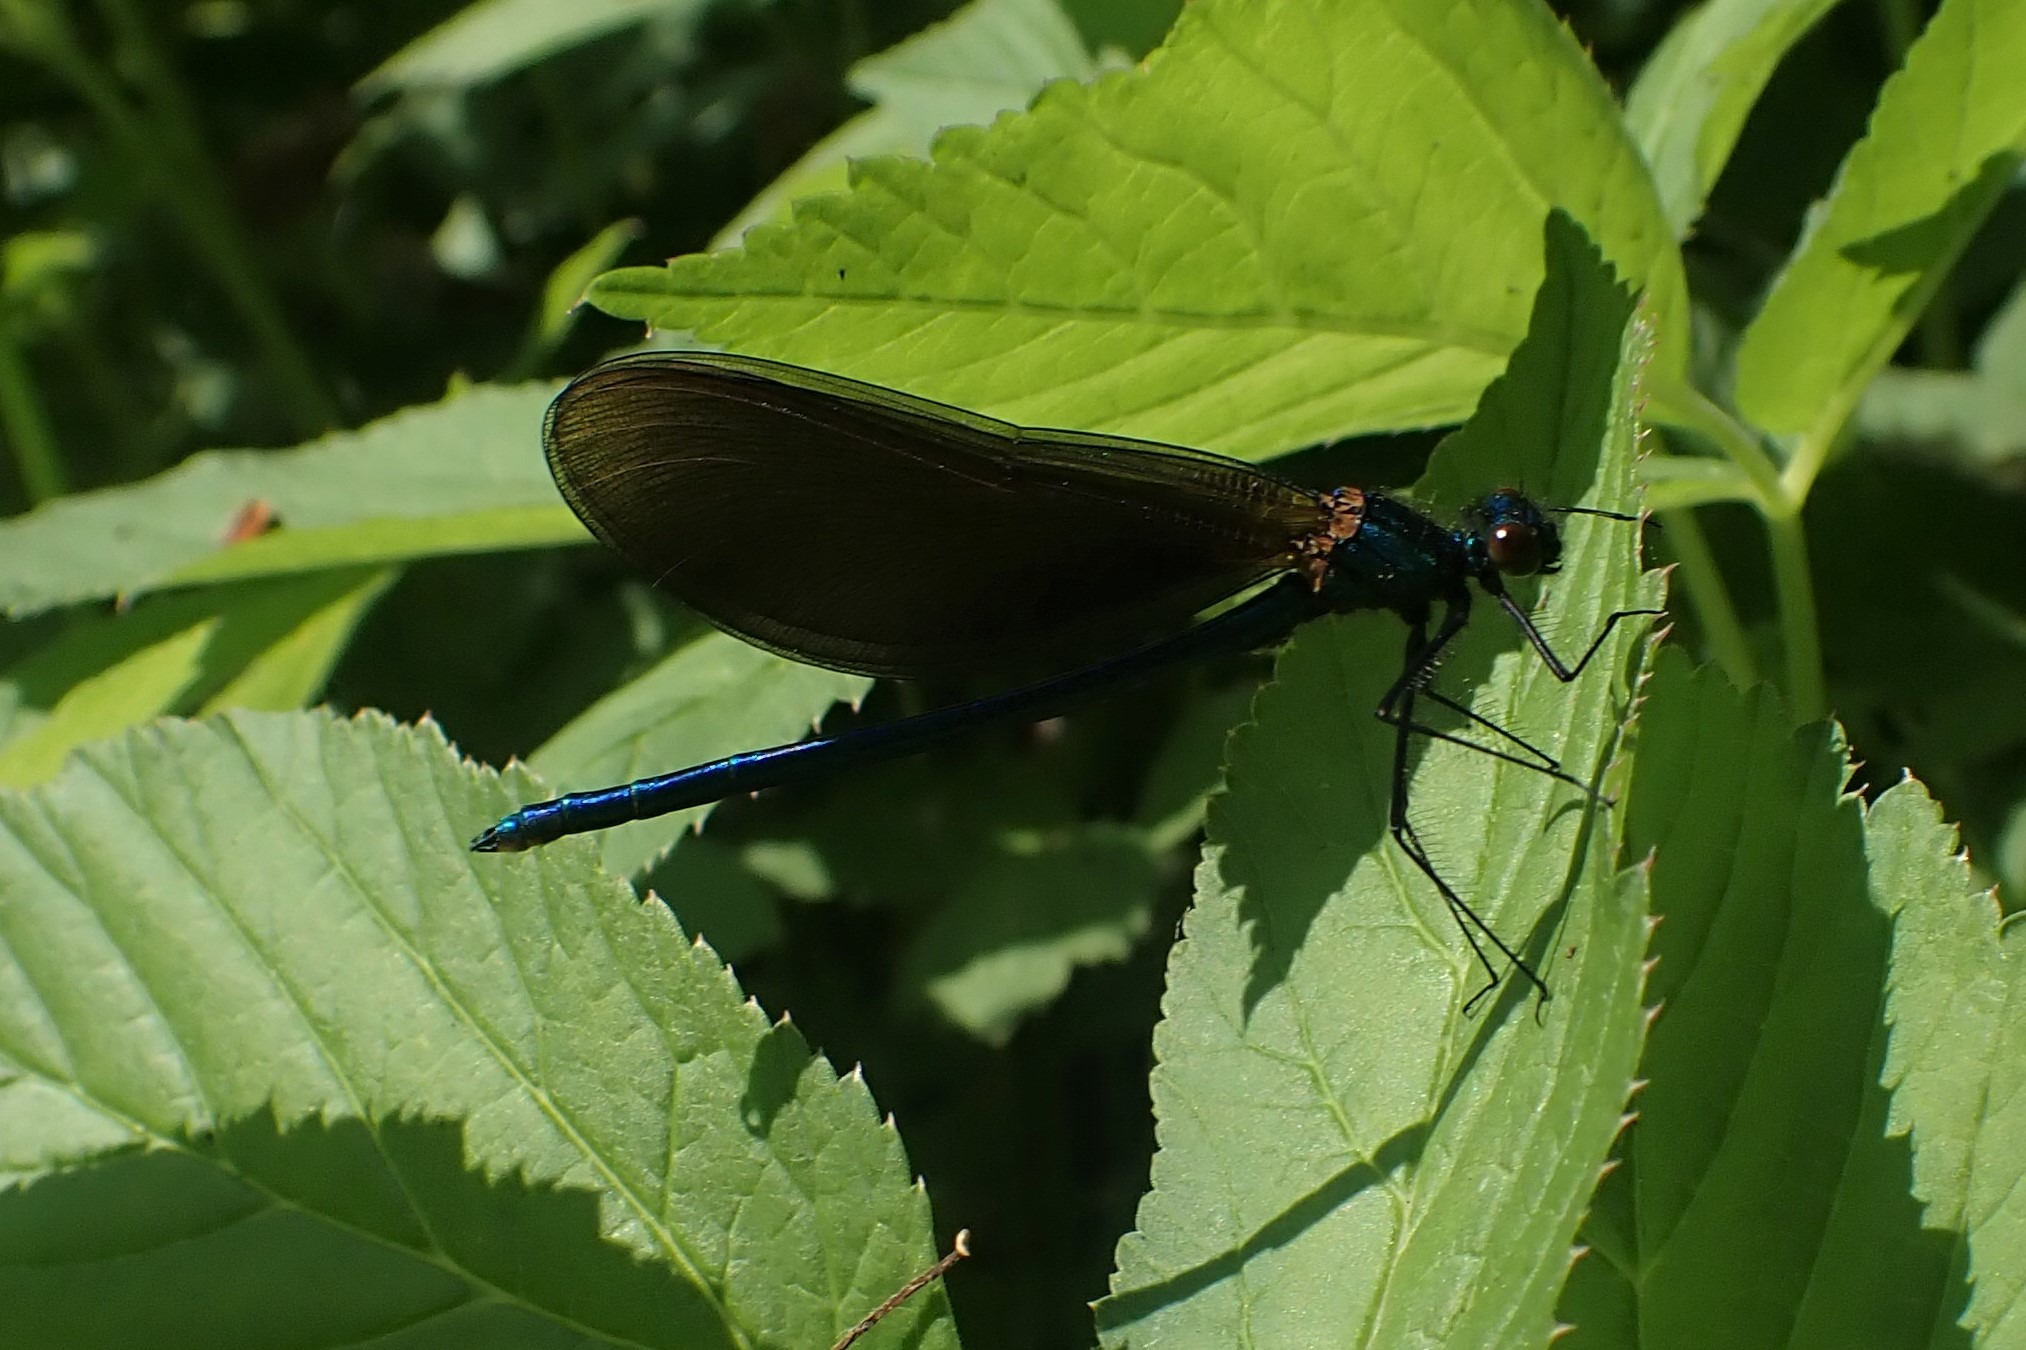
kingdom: Animalia
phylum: Arthropoda
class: Insecta
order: Odonata
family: Calopterygidae
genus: Calopteryx
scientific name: Calopteryx virgo
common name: Blåvinget pragtvandnymfe
